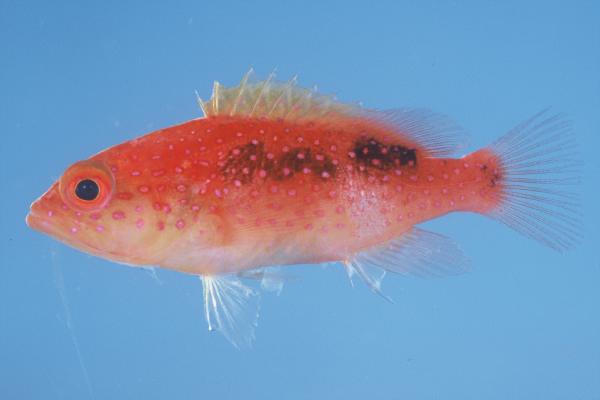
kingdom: Animalia
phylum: Chordata
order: Perciformes
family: Serranidae
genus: Variola
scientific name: Variola louti
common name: Yellow-edged lyretail
